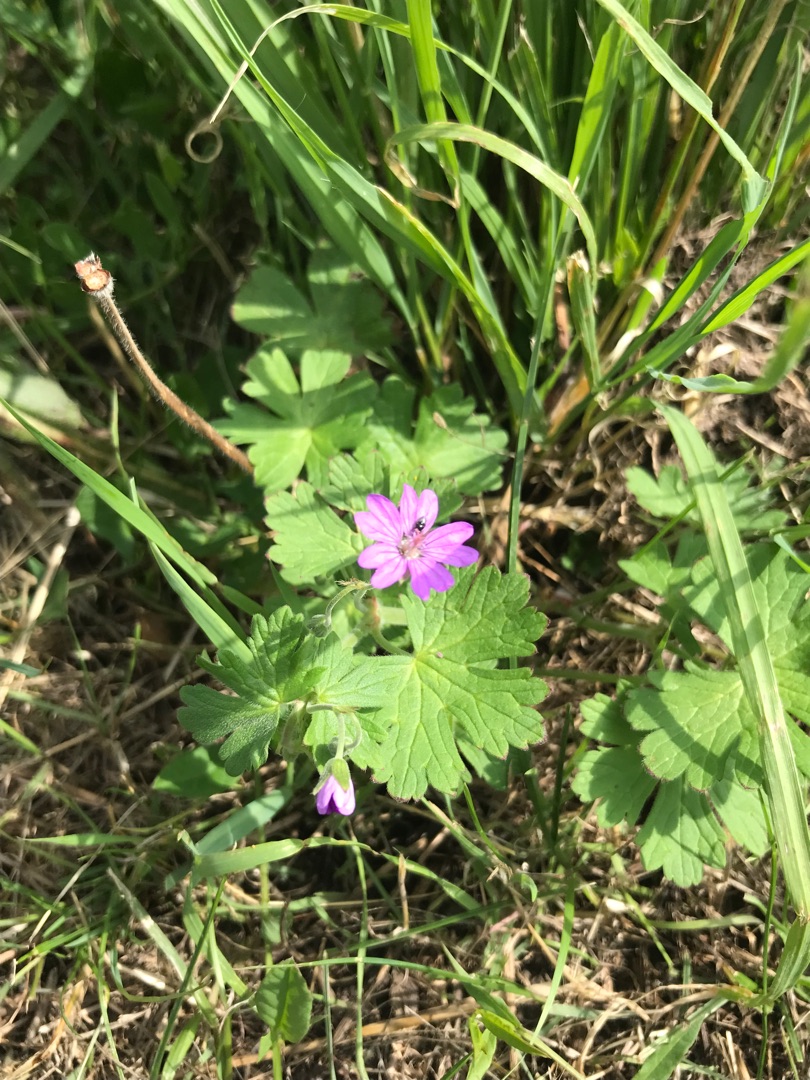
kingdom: Plantae
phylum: Tracheophyta
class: Magnoliopsida
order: Geraniales
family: Geraniaceae
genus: Geranium
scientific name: Geranium pyrenaicum
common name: Pyrenæisk storkenæb
